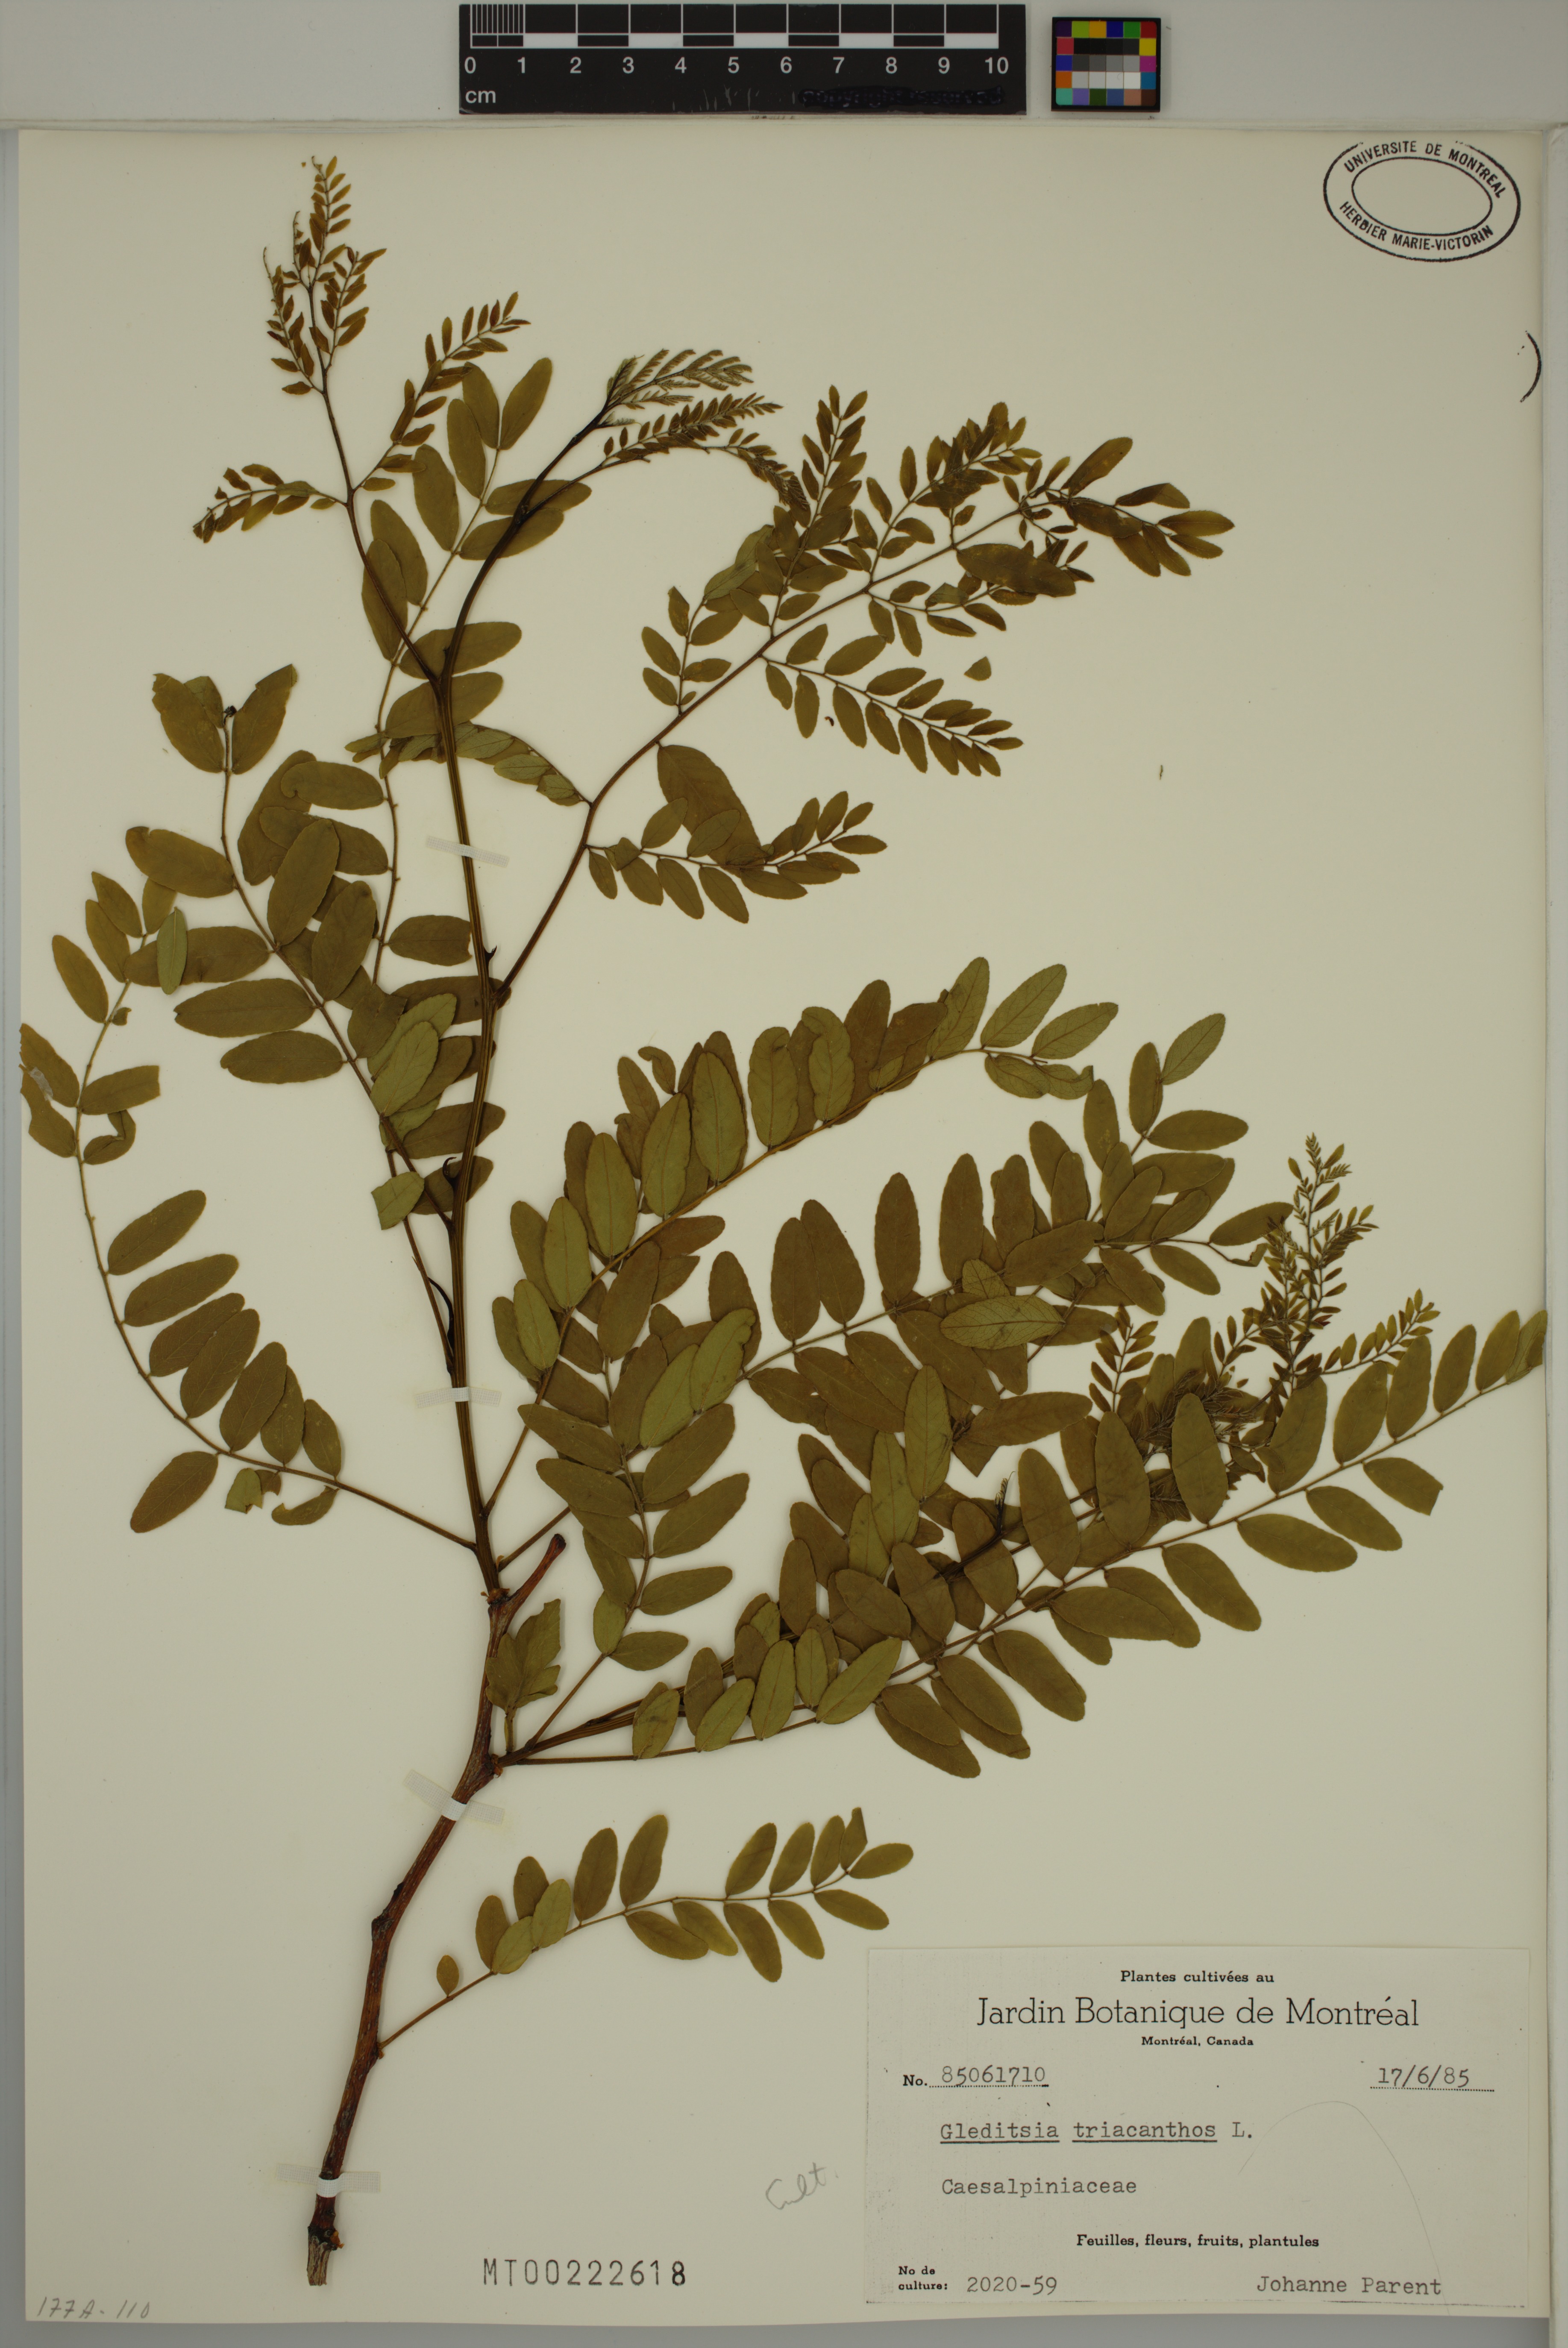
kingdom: Plantae
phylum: Tracheophyta
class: Magnoliopsida
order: Fabales
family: Fabaceae
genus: Gleditsia
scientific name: Gleditsia triacanthos
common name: Common honeylocust
